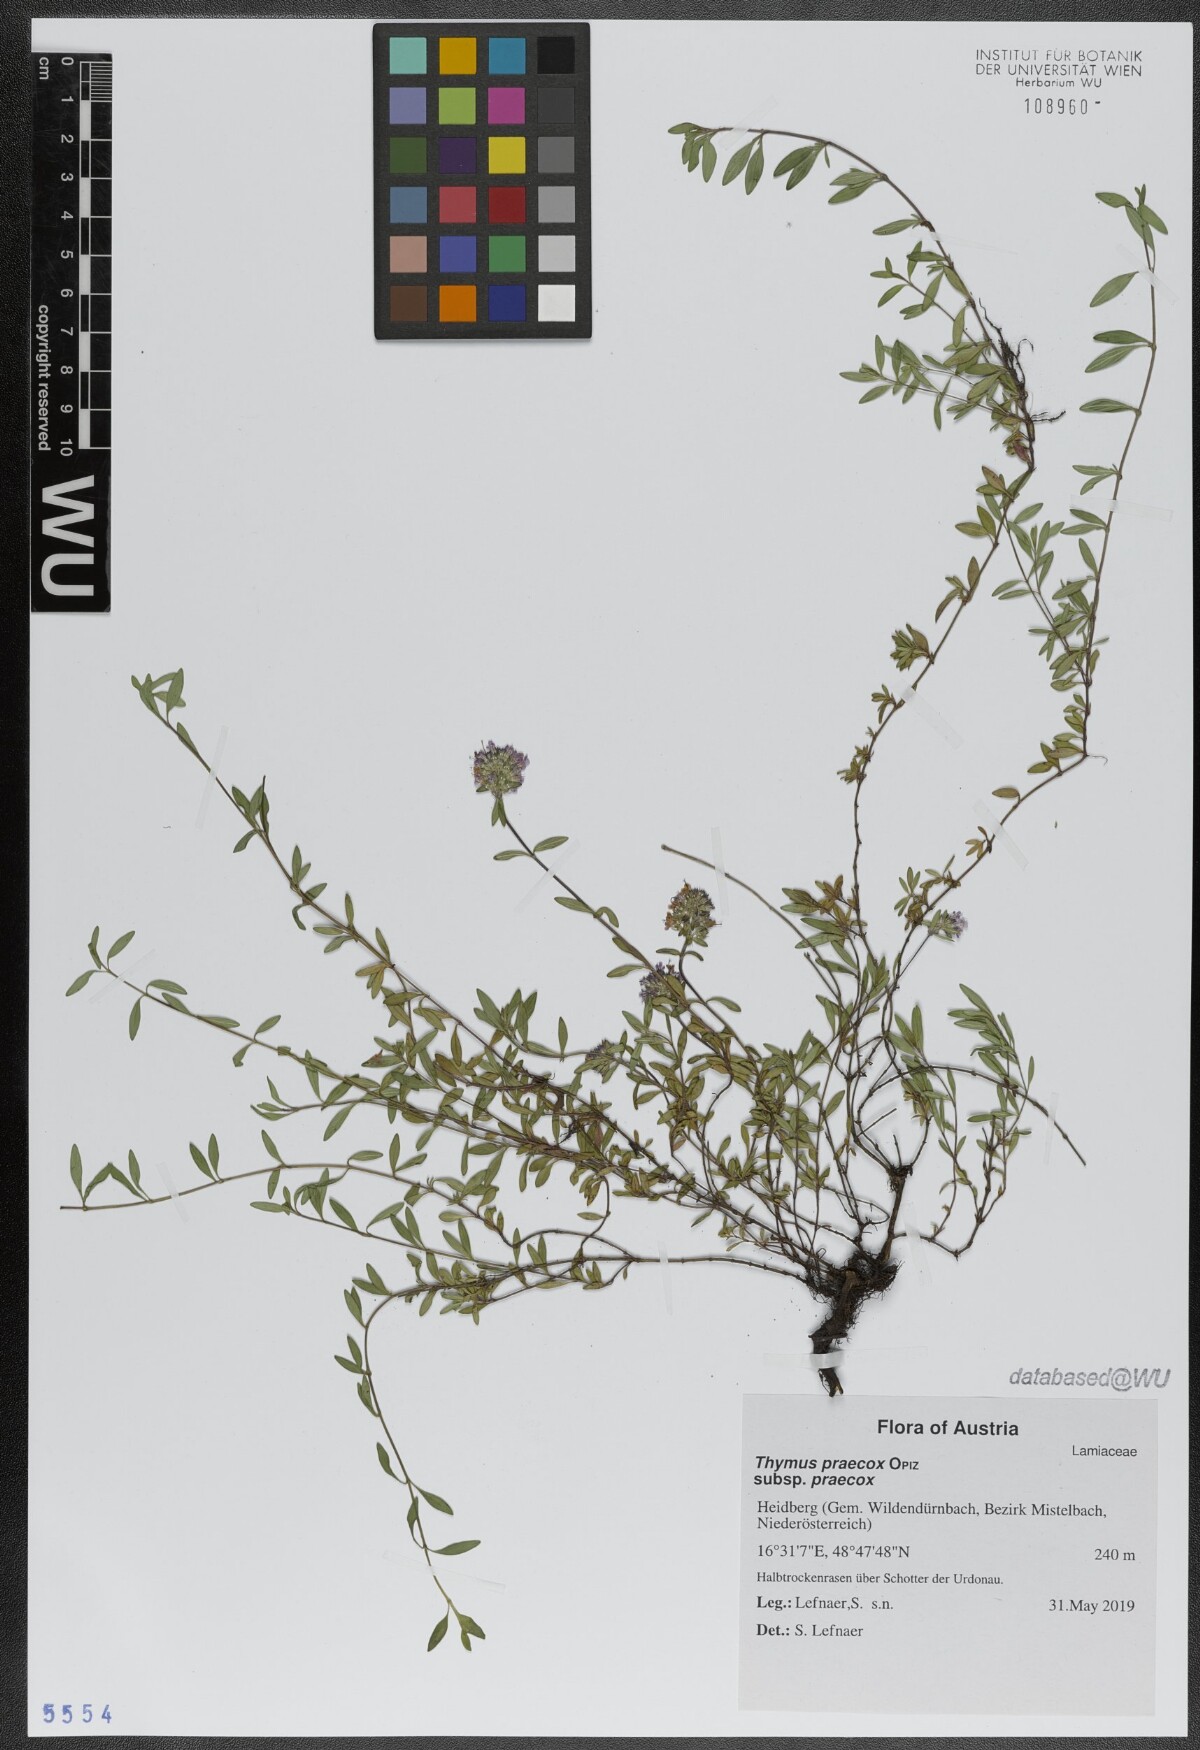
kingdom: Plantae
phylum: Tracheophyta
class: Magnoliopsida
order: Lamiales
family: Lamiaceae
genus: Thymus
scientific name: Thymus praecox
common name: Wild thyme
